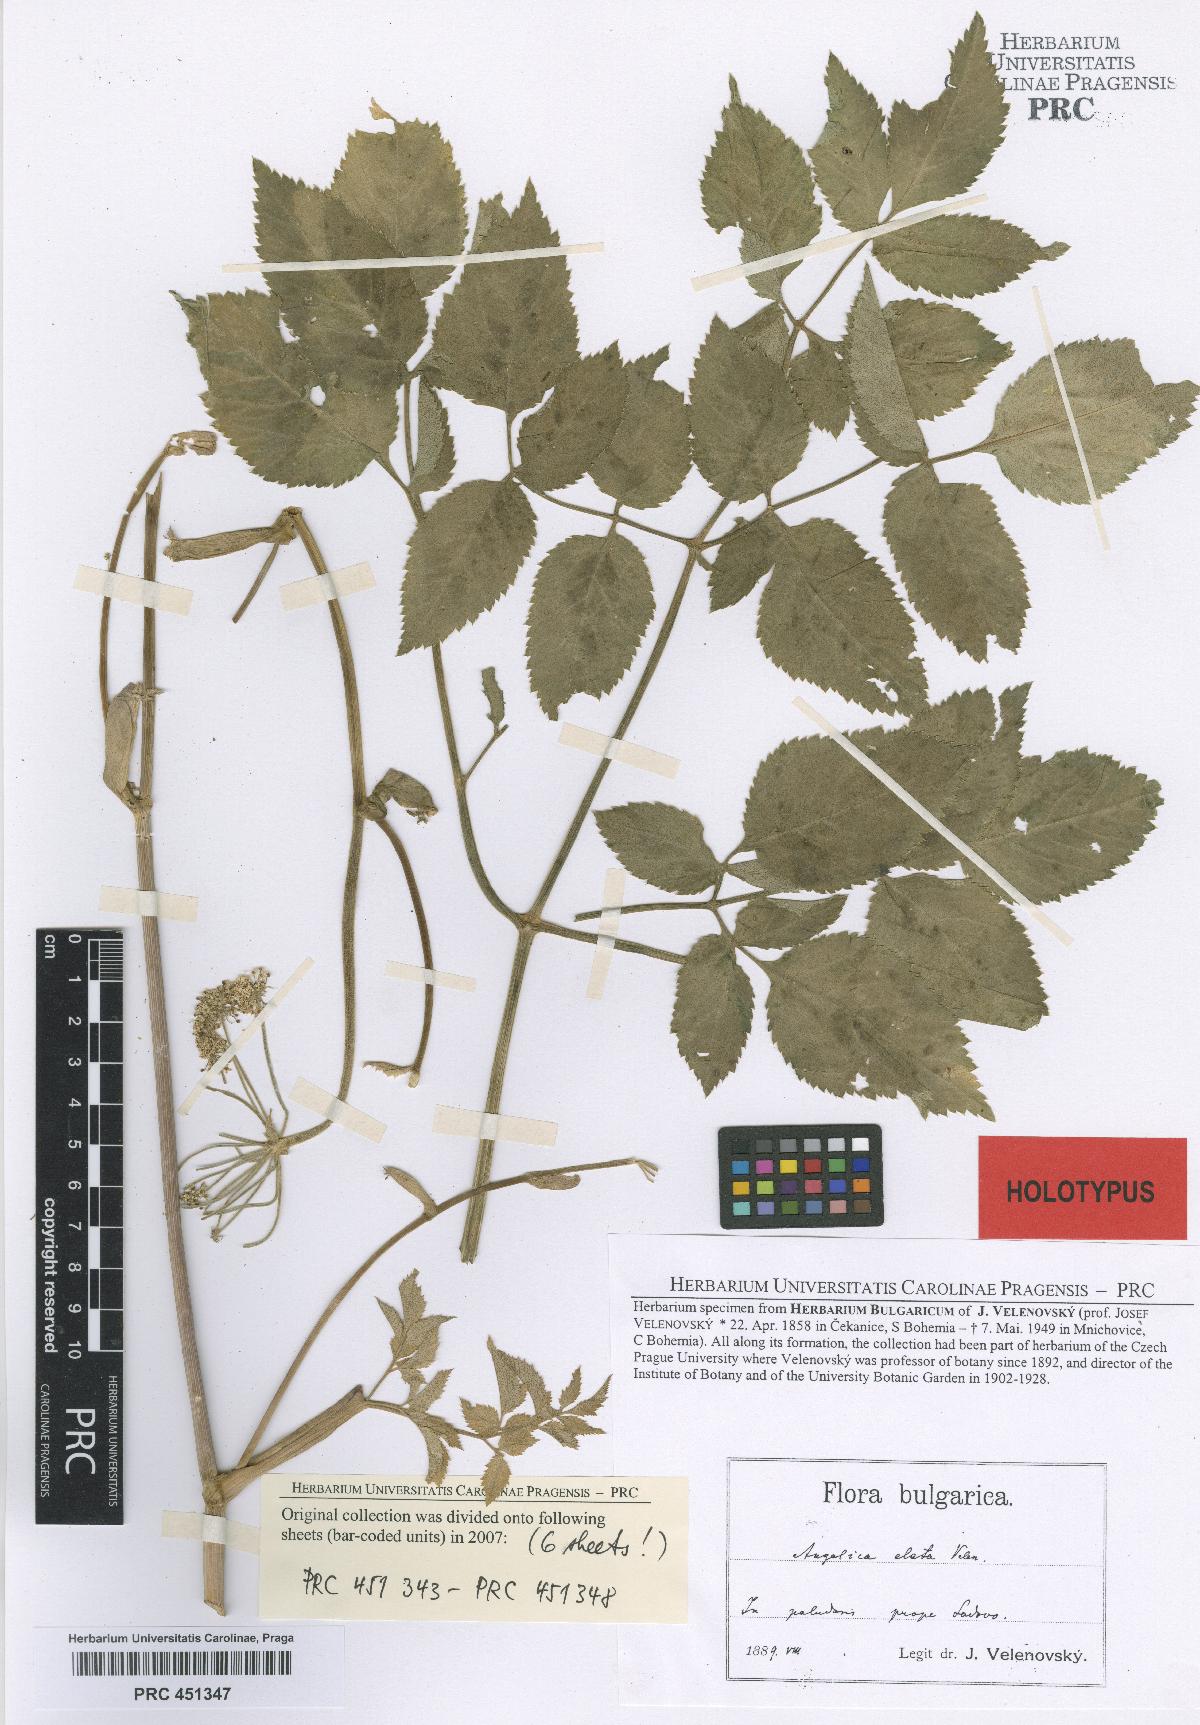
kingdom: Plantae
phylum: Tracheophyta
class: Magnoliopsida
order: Apiales
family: Apiaceae
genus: Angelica
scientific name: Angelica sylvestris
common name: Wild angelica
